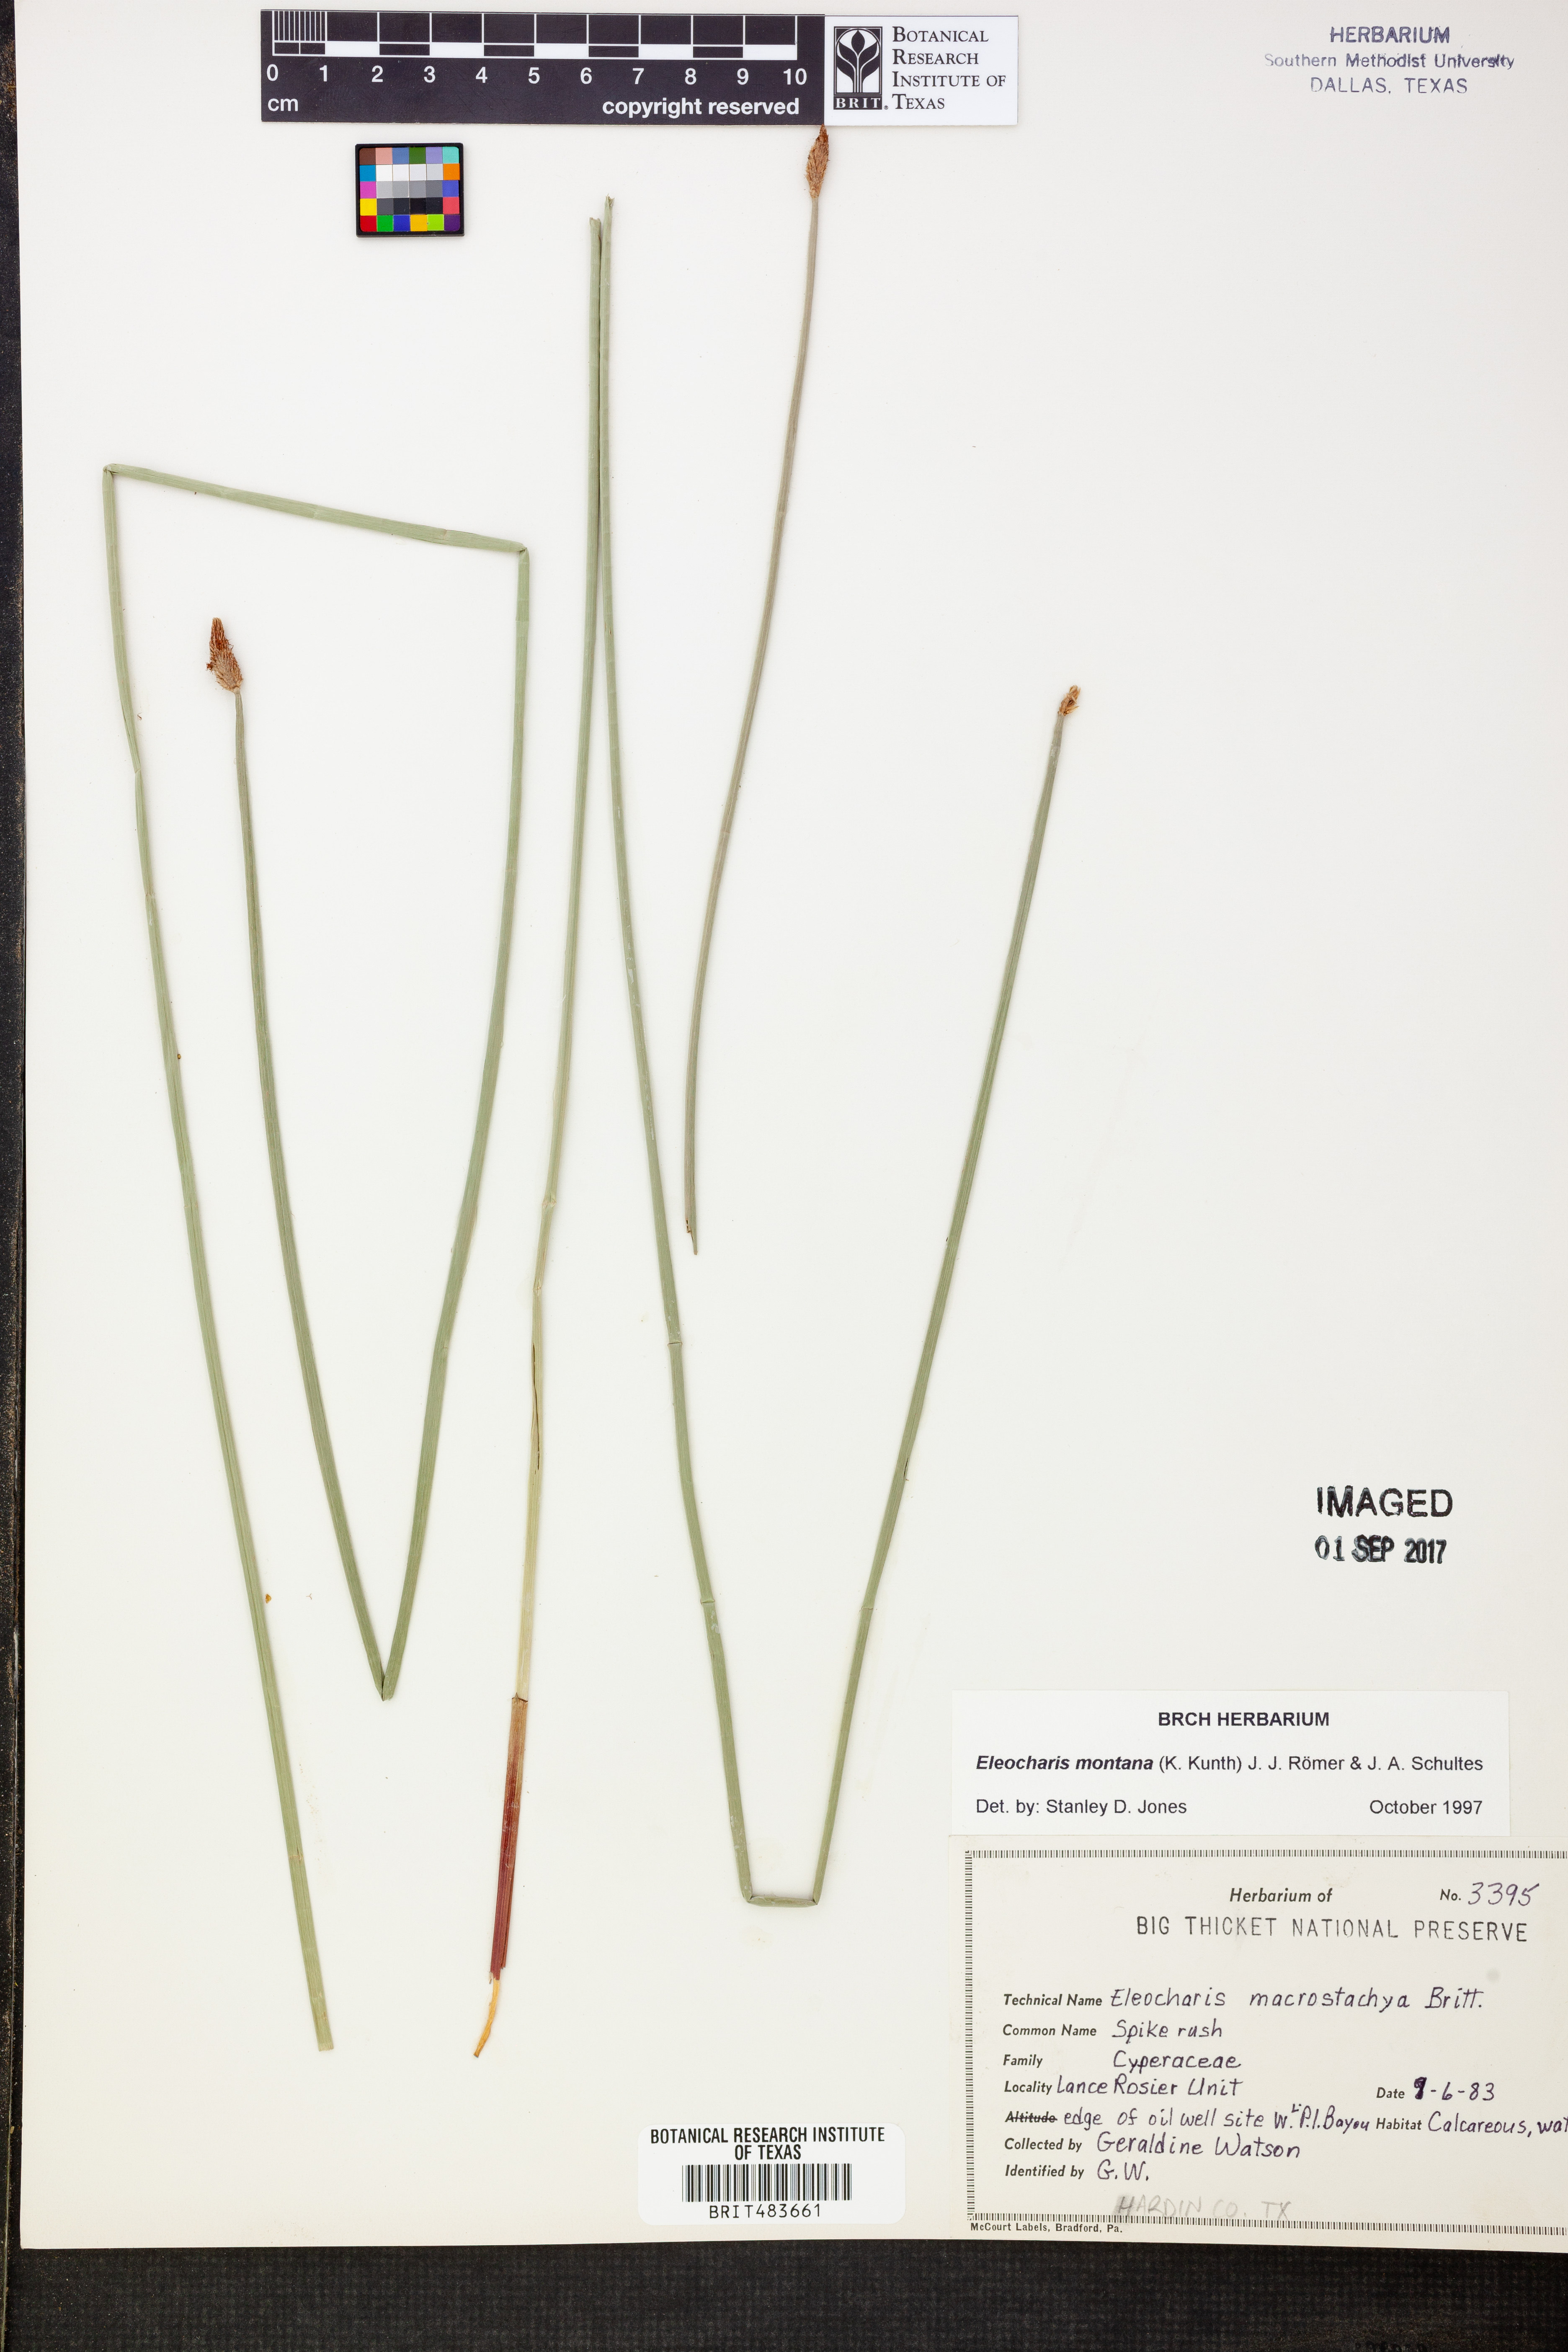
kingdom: Plantae
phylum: Tracheophyta
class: Liliopsida
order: Poales
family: Cyperaceae
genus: Eleocharis
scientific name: Eleocharis montana
